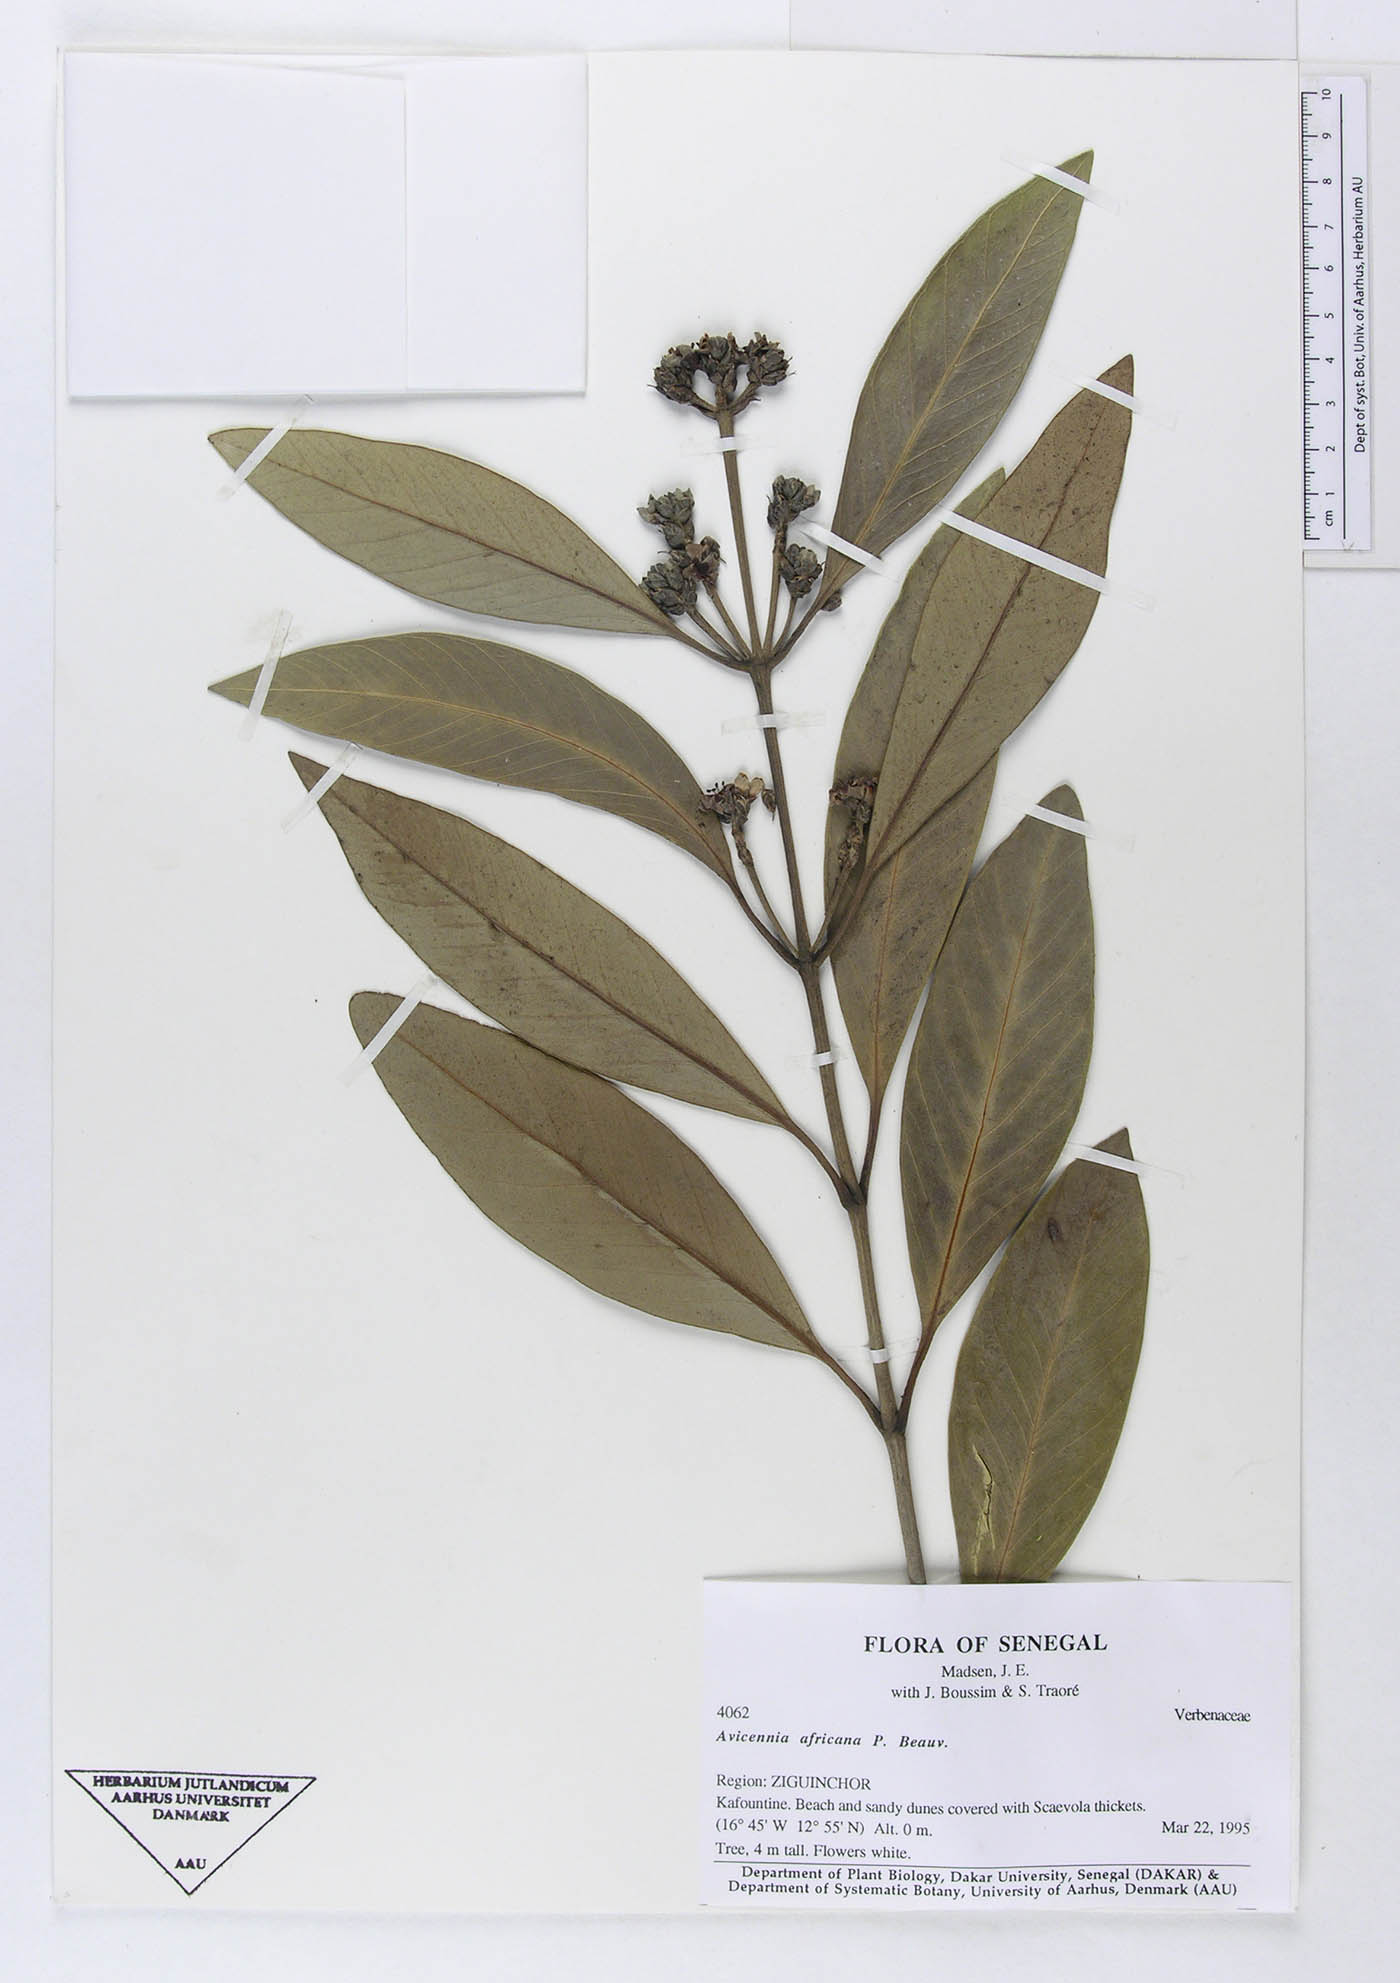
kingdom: Plantae
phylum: Tracheophyta
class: Magnoliopsida
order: Lamiales
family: Acanthaceae
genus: Avicennia
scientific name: Avicennia germinans
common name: Black mangrove
